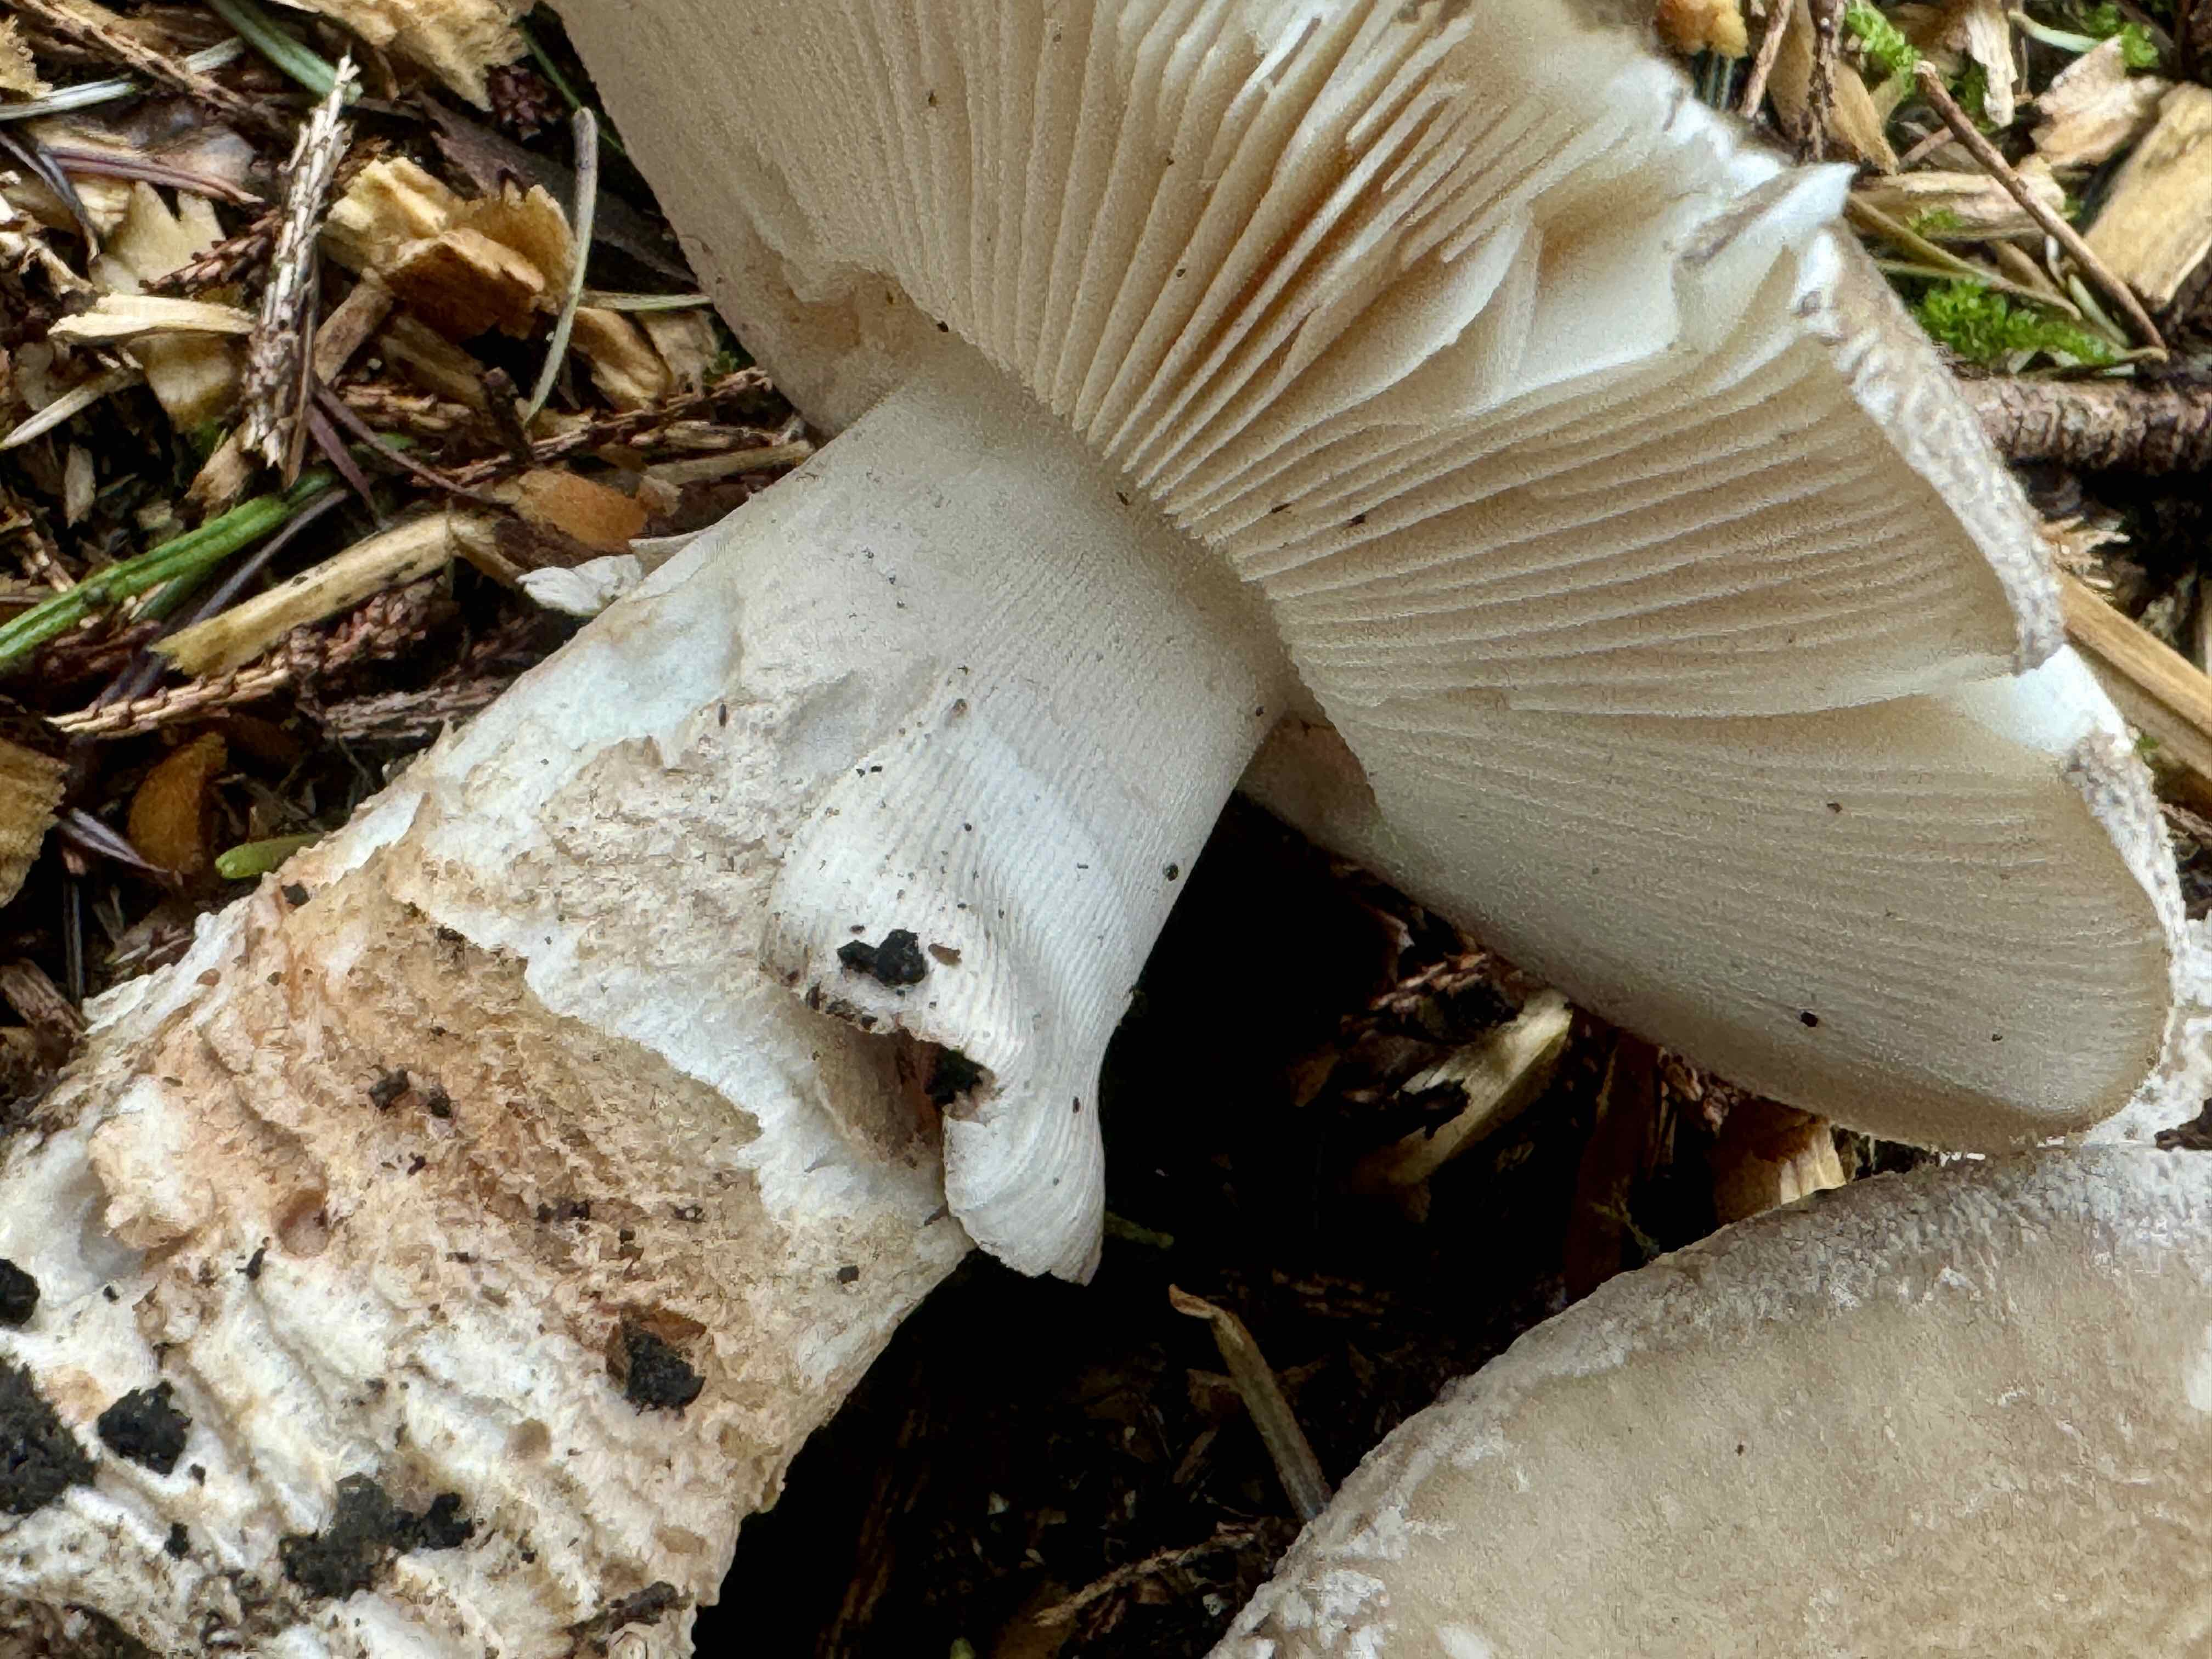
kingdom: Fungi
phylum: Basidiomycota
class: Agaricomycetes
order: Agaricales
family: Amanitaceae
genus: Amanita
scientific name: Amanita
